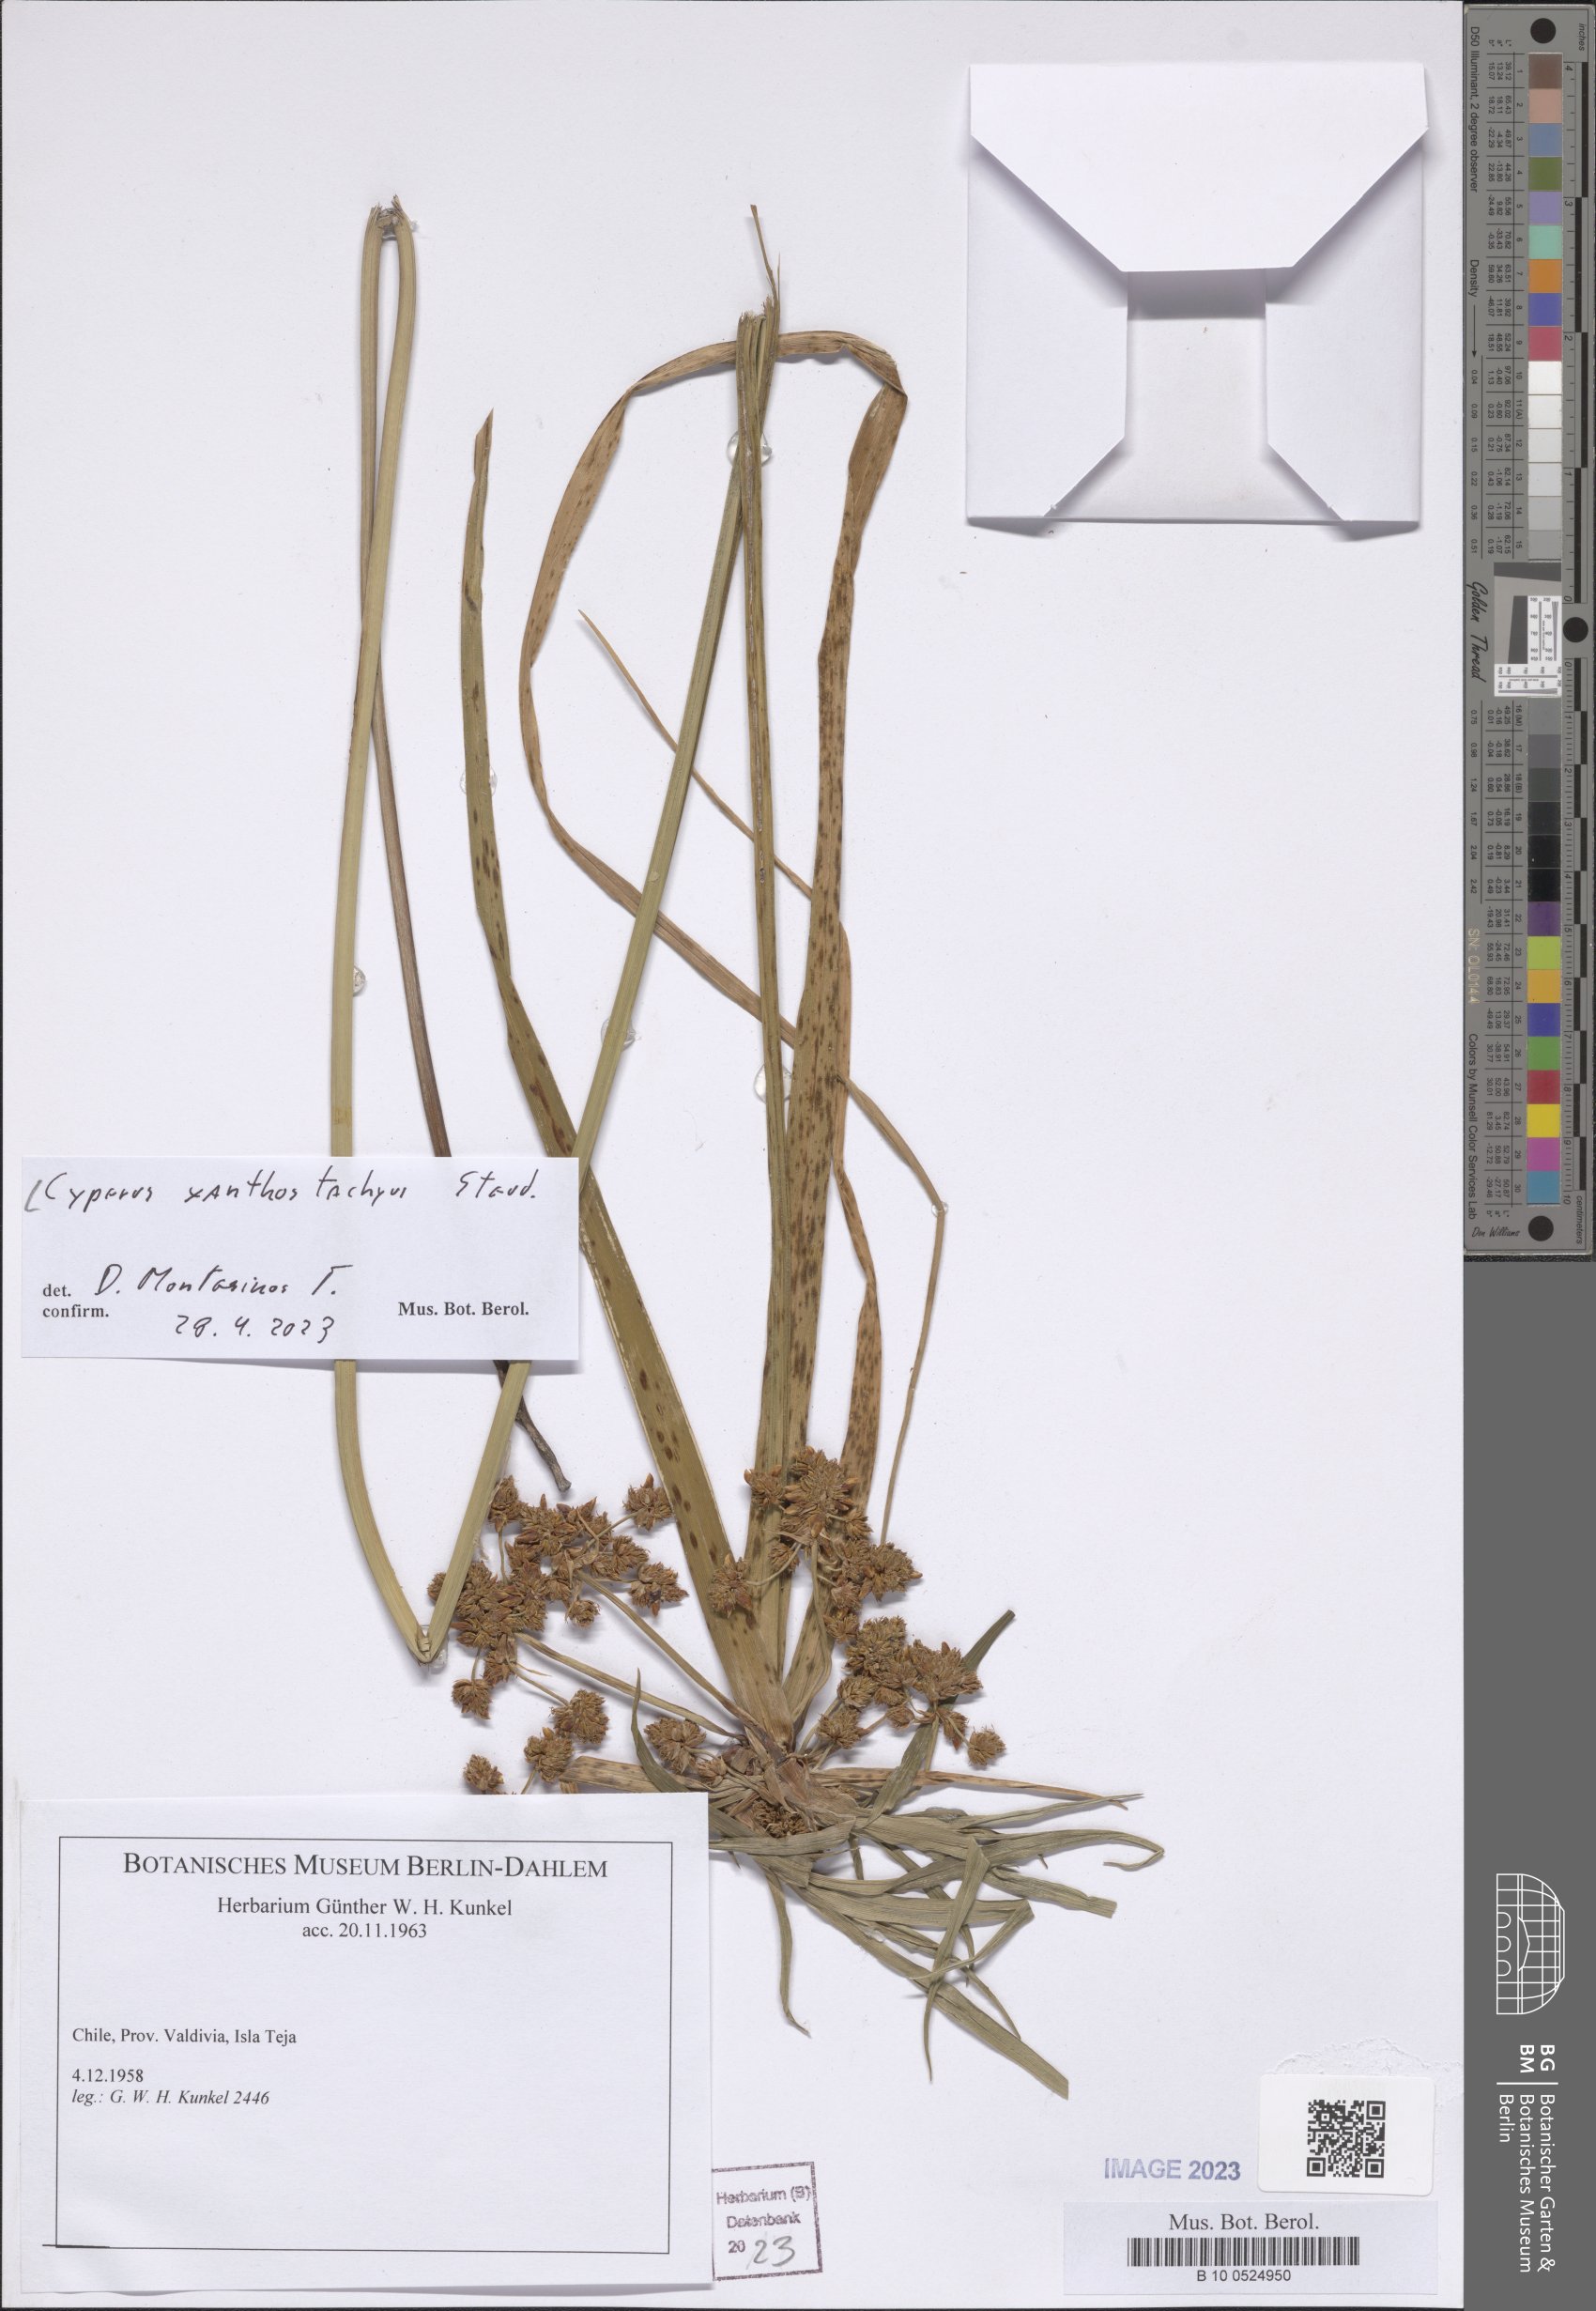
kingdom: Plantae
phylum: Tracheophyta
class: Liliopsida
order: Poales
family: Cyperaceae
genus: Cyperus
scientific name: Cyperus xanthostachyus
